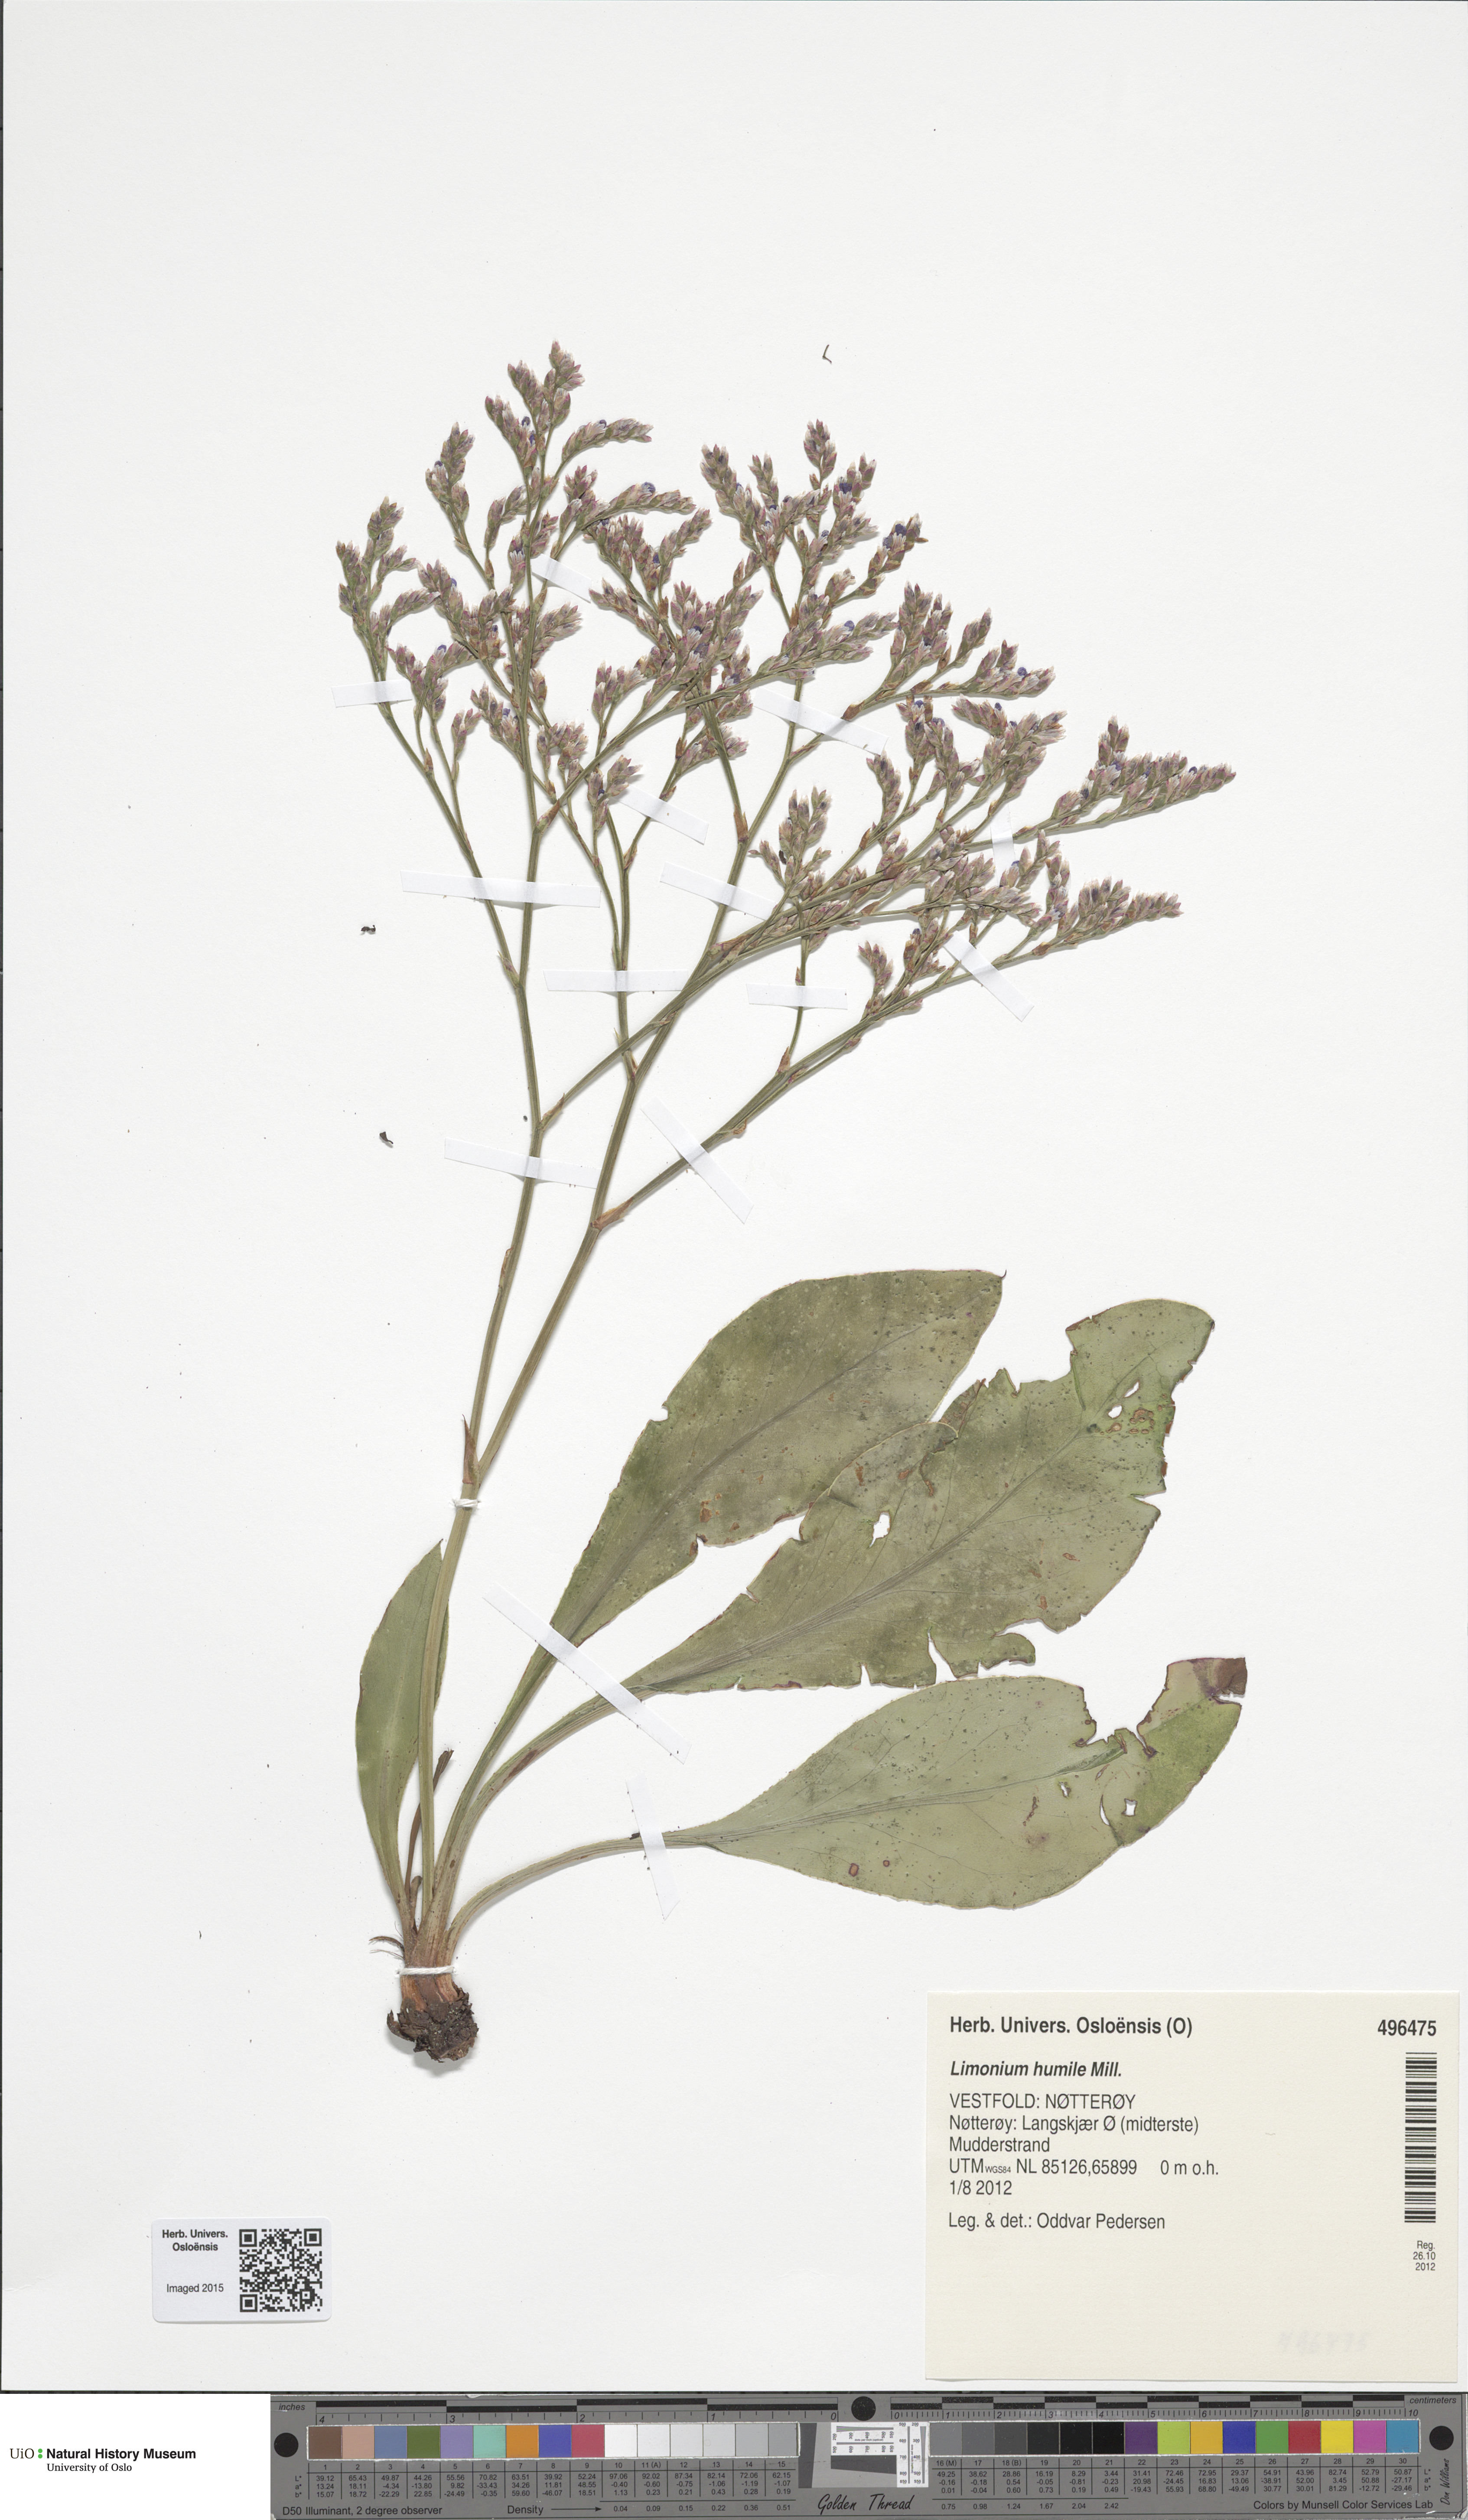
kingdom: Plantae
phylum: Tracheophyta
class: Magnoliopsida
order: Caryophyllales
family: Plumbaginaceae
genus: Limonium
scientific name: Limonium humile
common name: Lax-flowered sea-lavender
